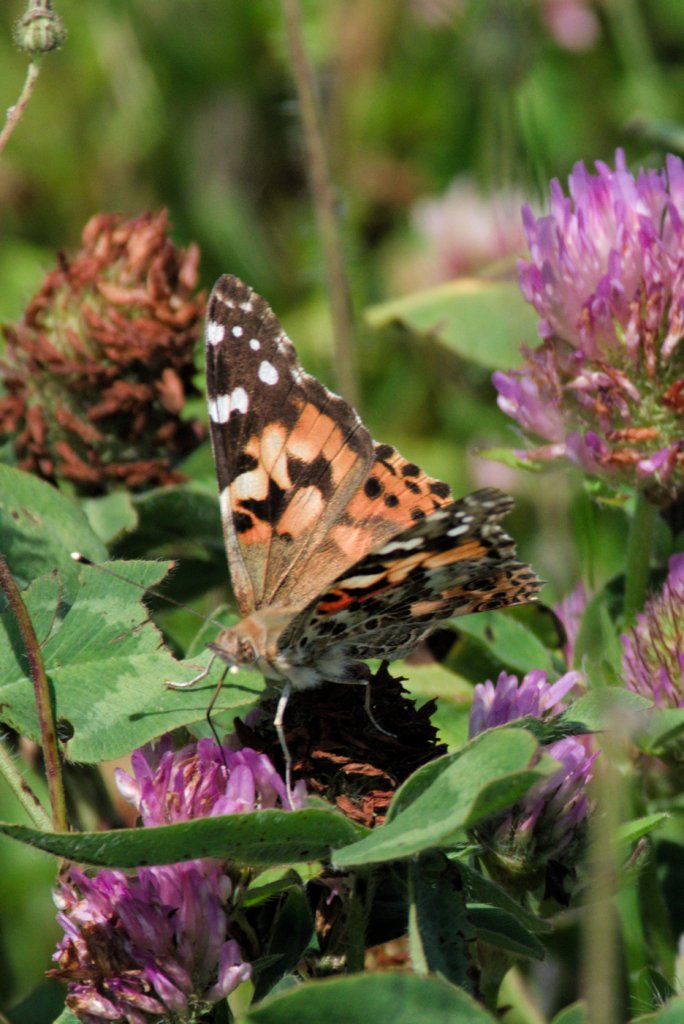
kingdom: Animalia
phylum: Arthropoda
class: Insecta
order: Lepidoptera
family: Nymphalidae
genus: Vanessa
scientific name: Vanessa cardui
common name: Painted Lady
